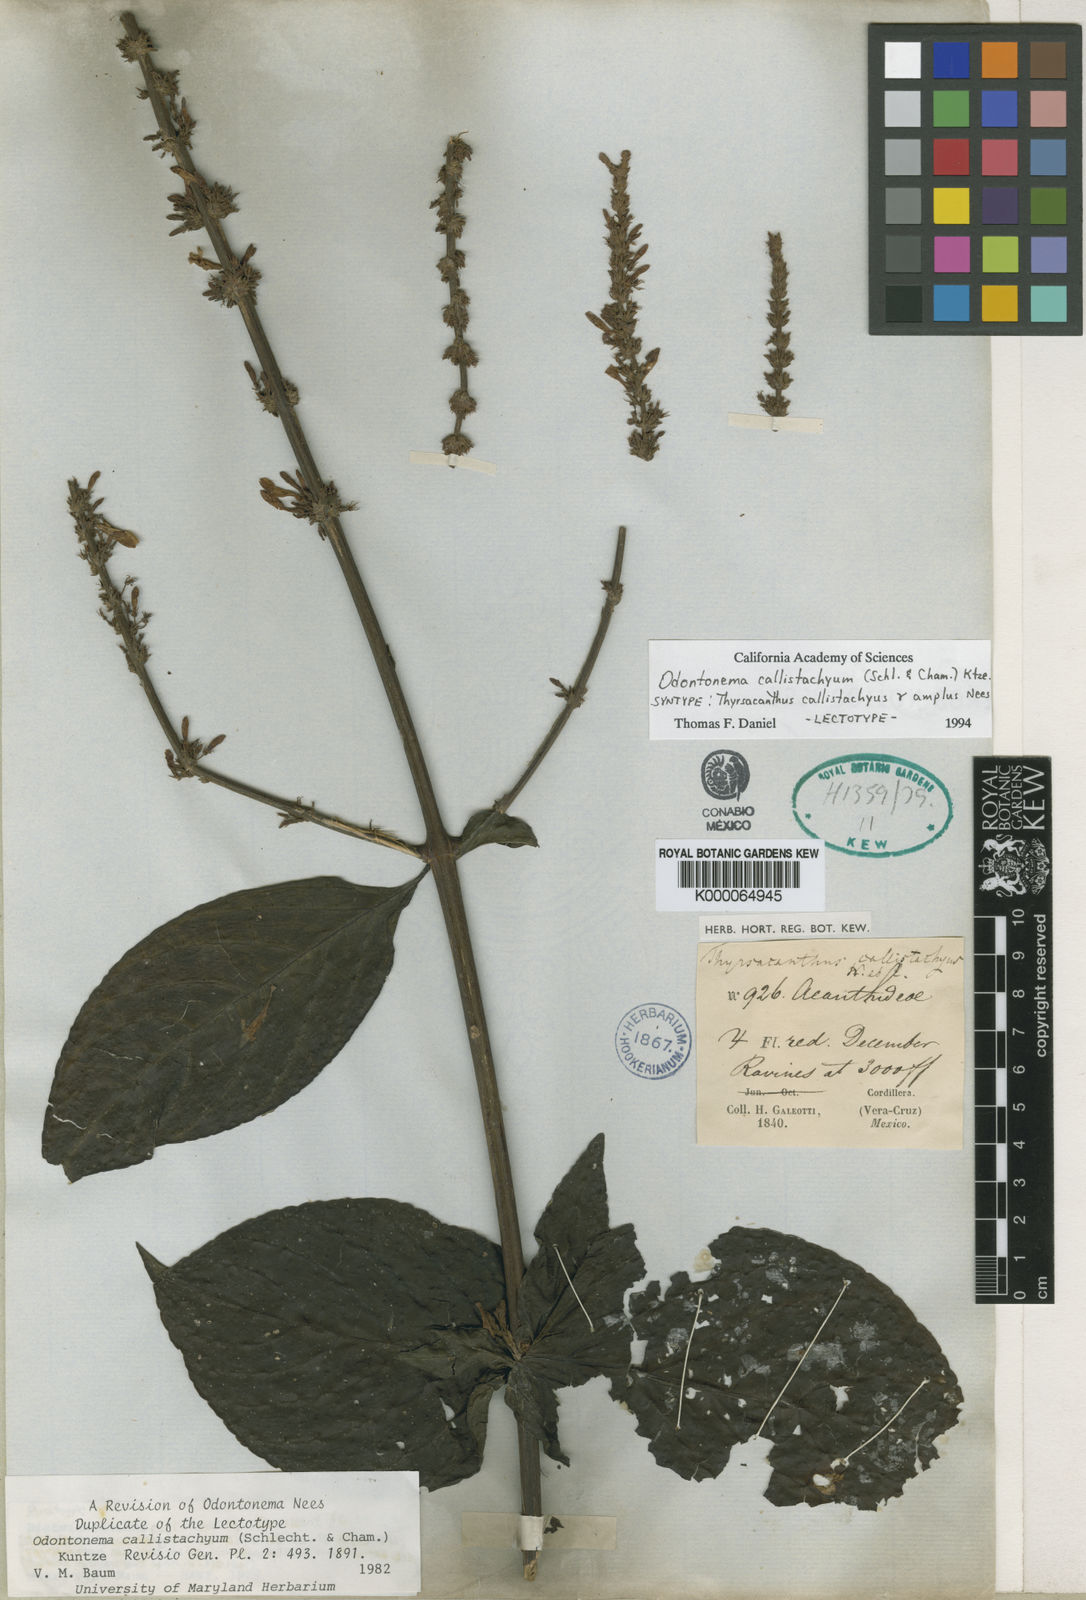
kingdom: Plantae
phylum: Tracheophyta
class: Magnoliopsida
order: Lamiales
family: Acanthaceae
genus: Odontonema
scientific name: Odontonema callistachyum
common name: Firespike
